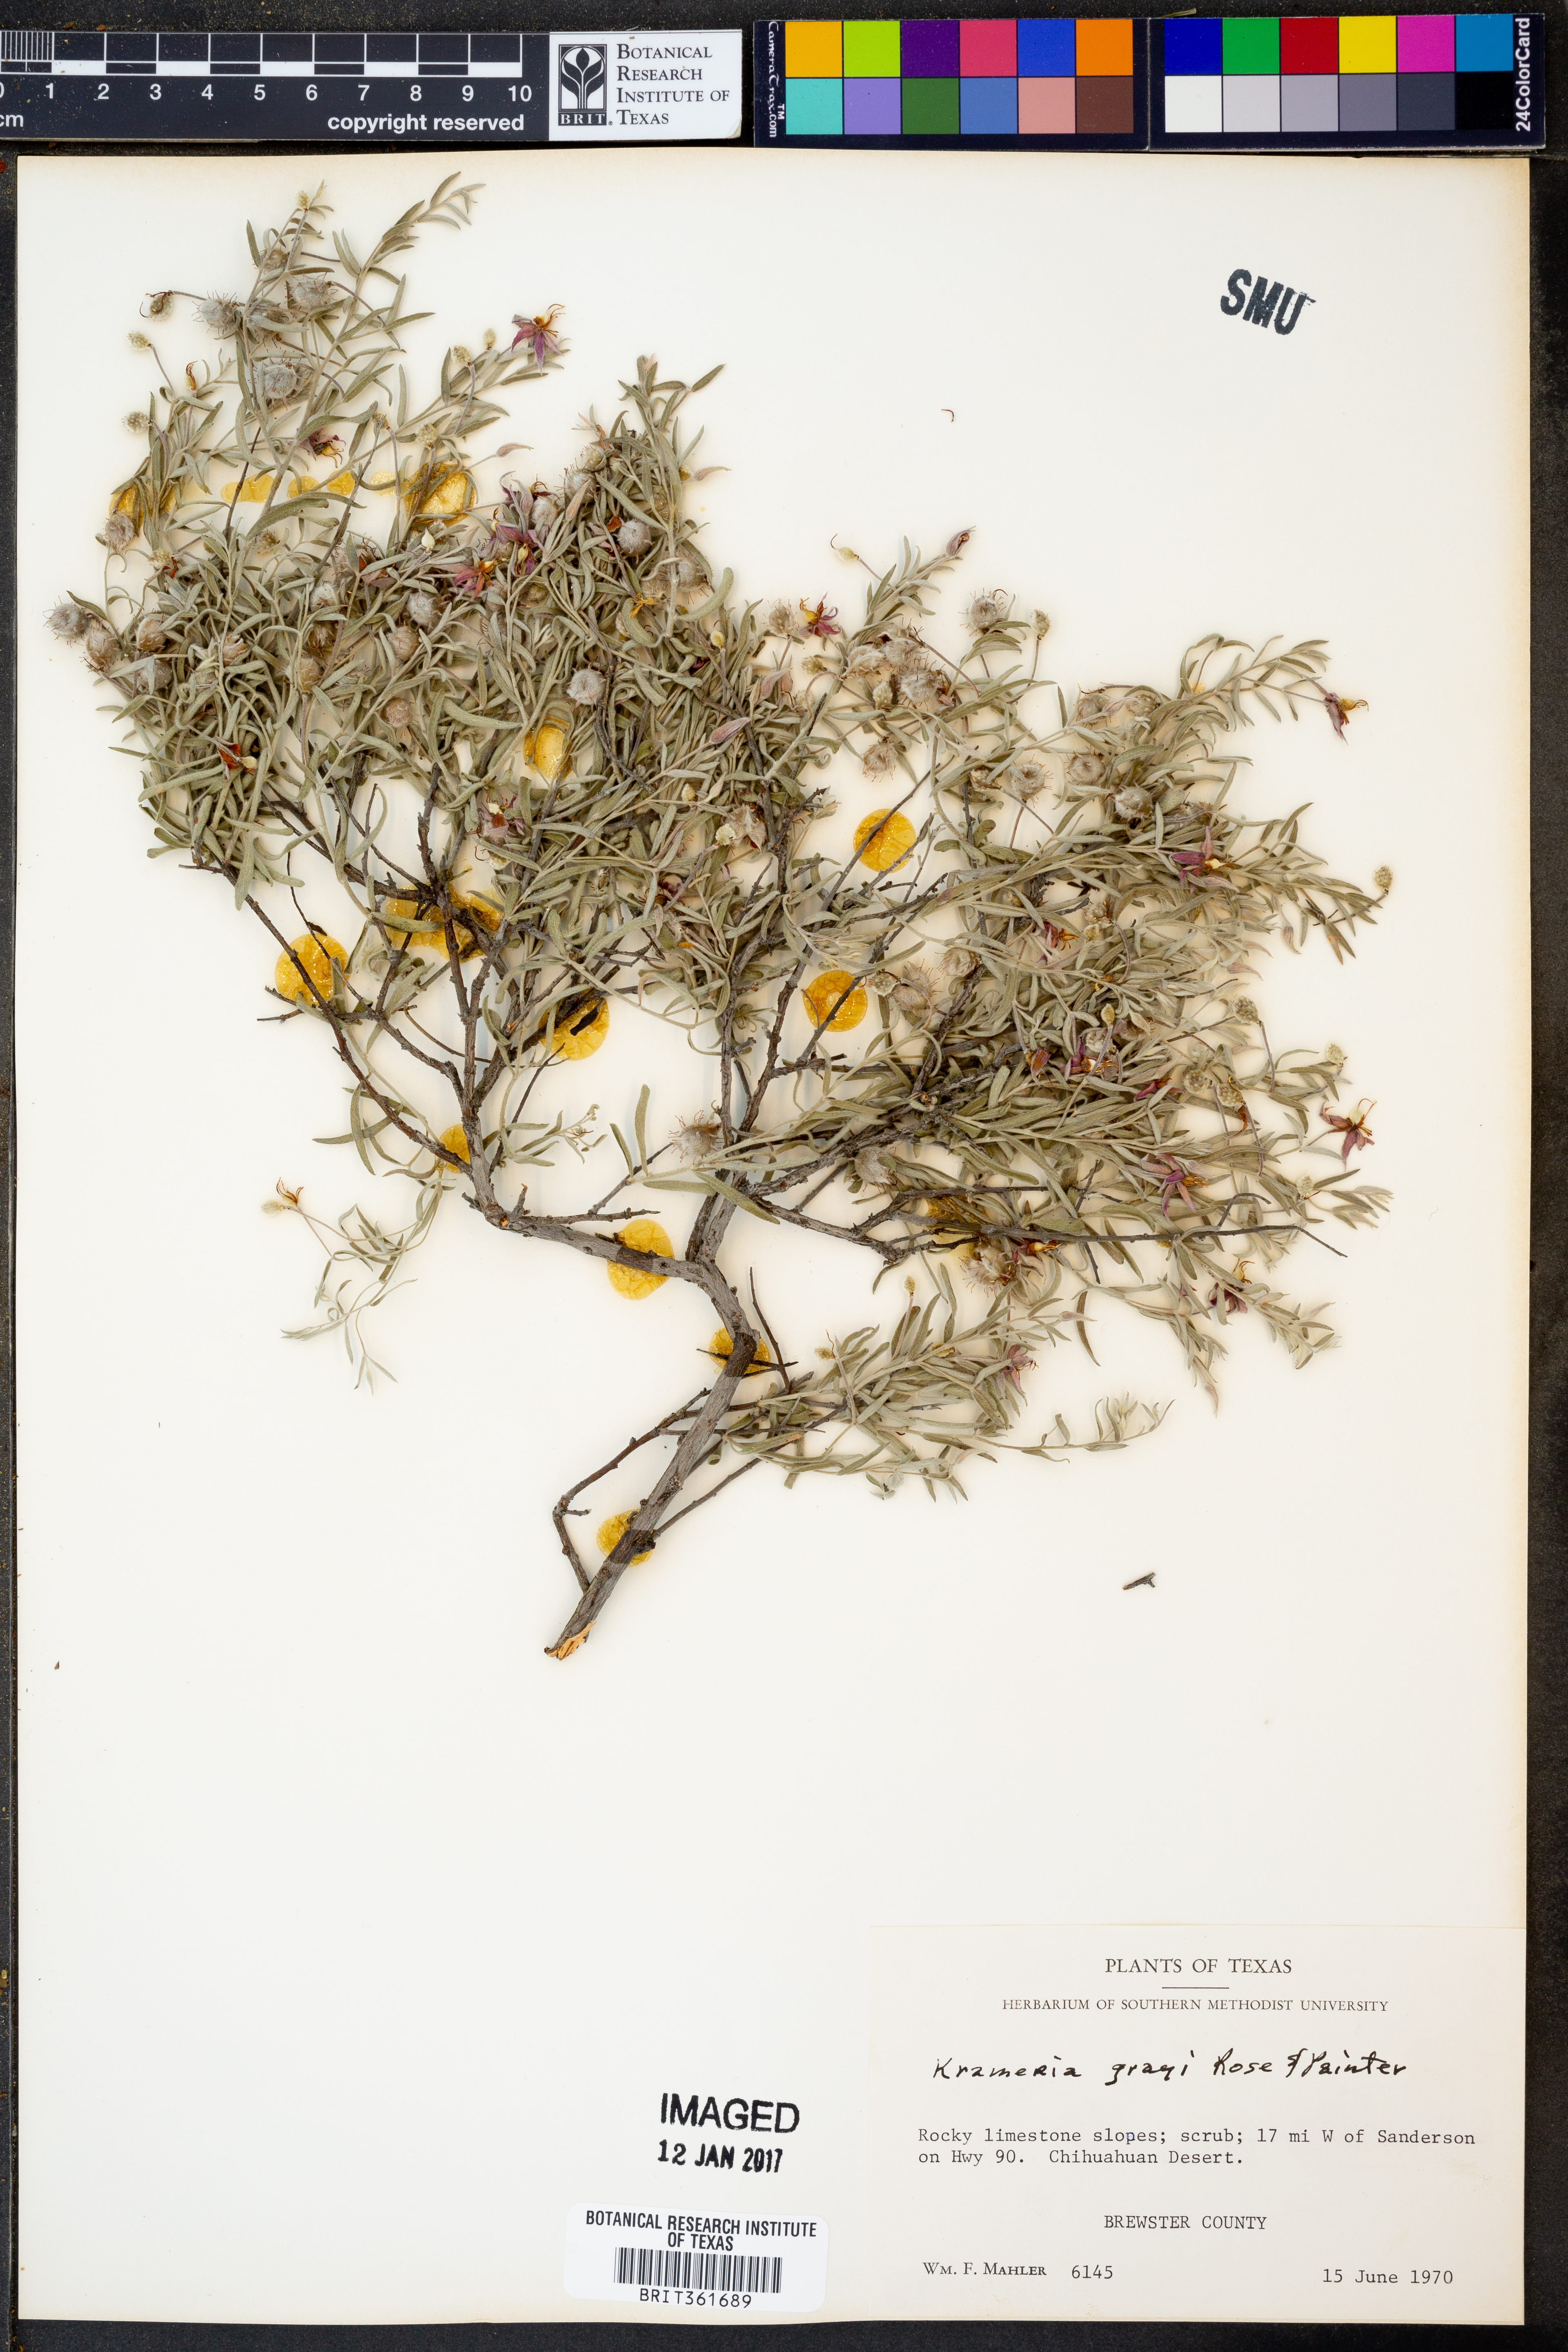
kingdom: Plantae
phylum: Tracheophyta
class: Magnoliopsida
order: Zygophyllales
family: Krameriaceae
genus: Krameria
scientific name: Krameria bicolor
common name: White ratany
